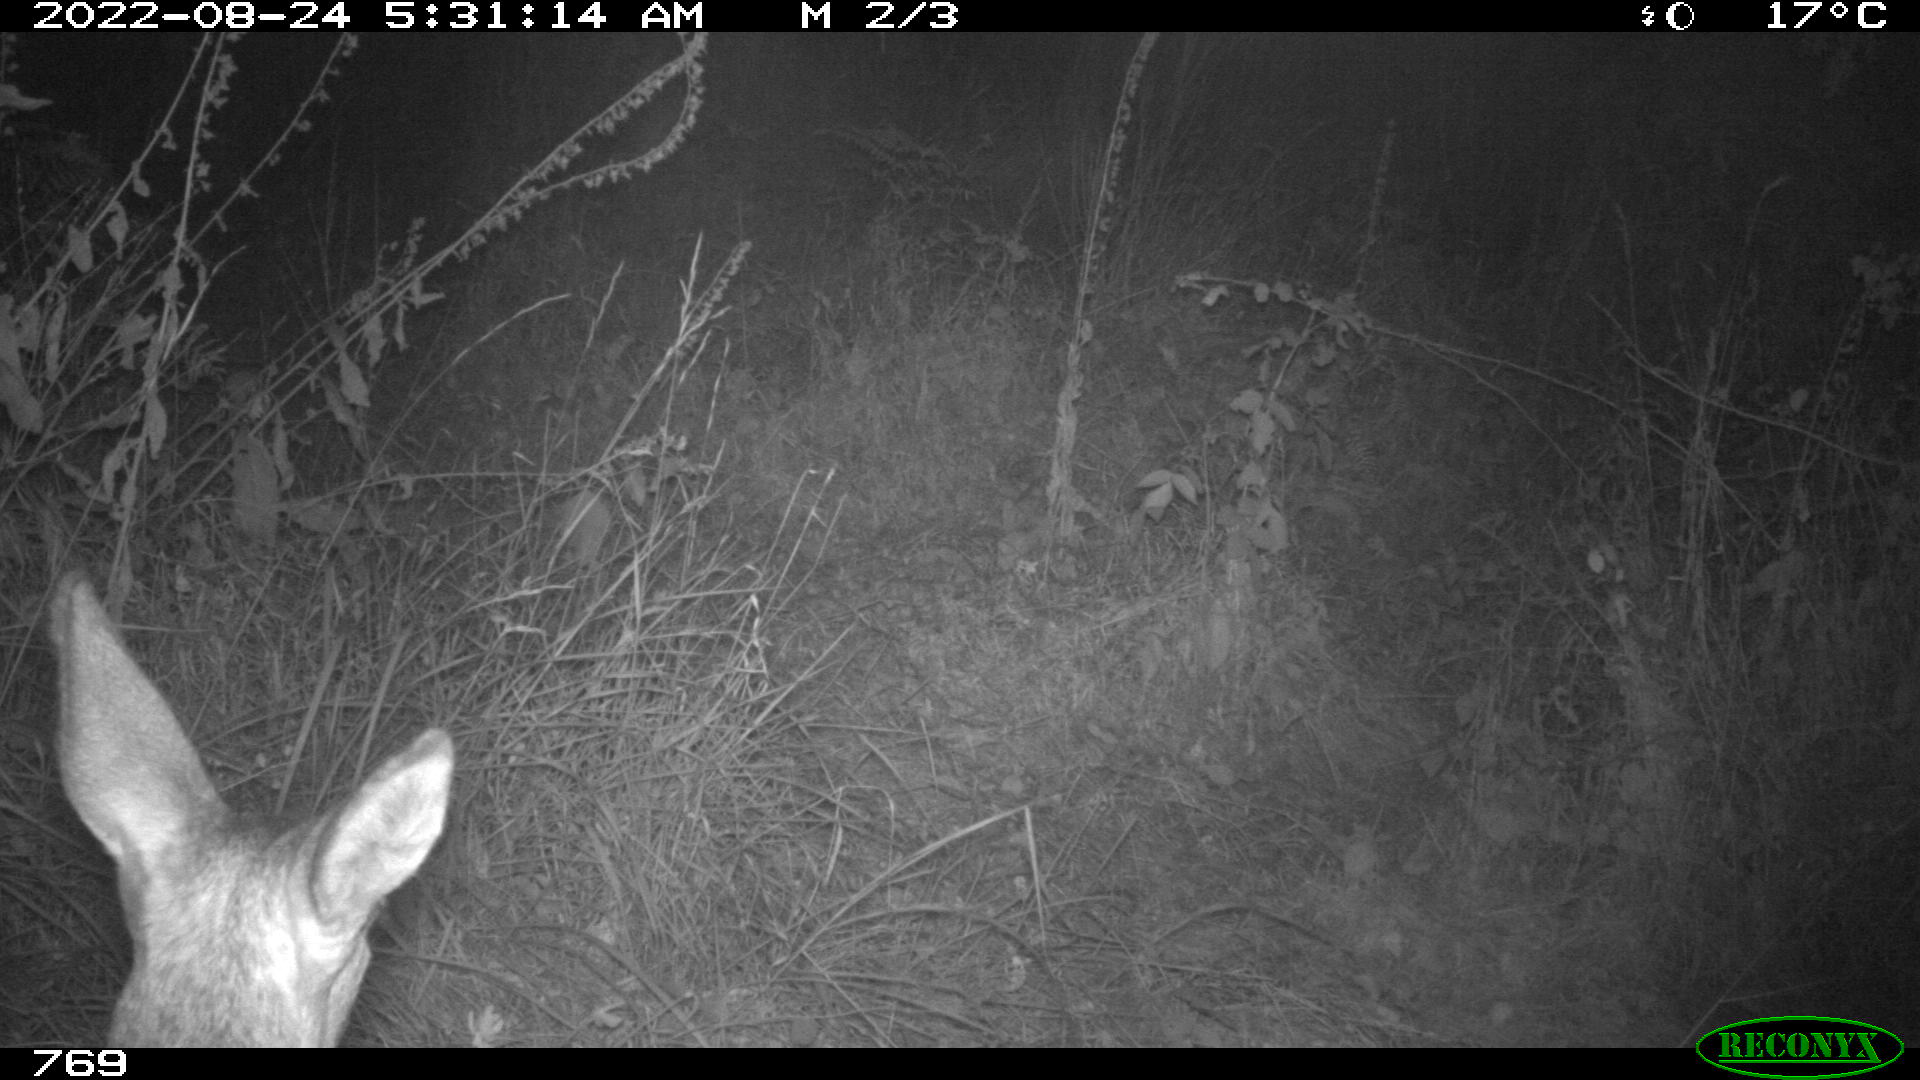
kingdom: Animalia
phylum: Chordata
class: Mammalia
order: Artiodactyla
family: Cervidae
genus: Capreolus
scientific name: Capreolus capreolus
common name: Western roe deer
